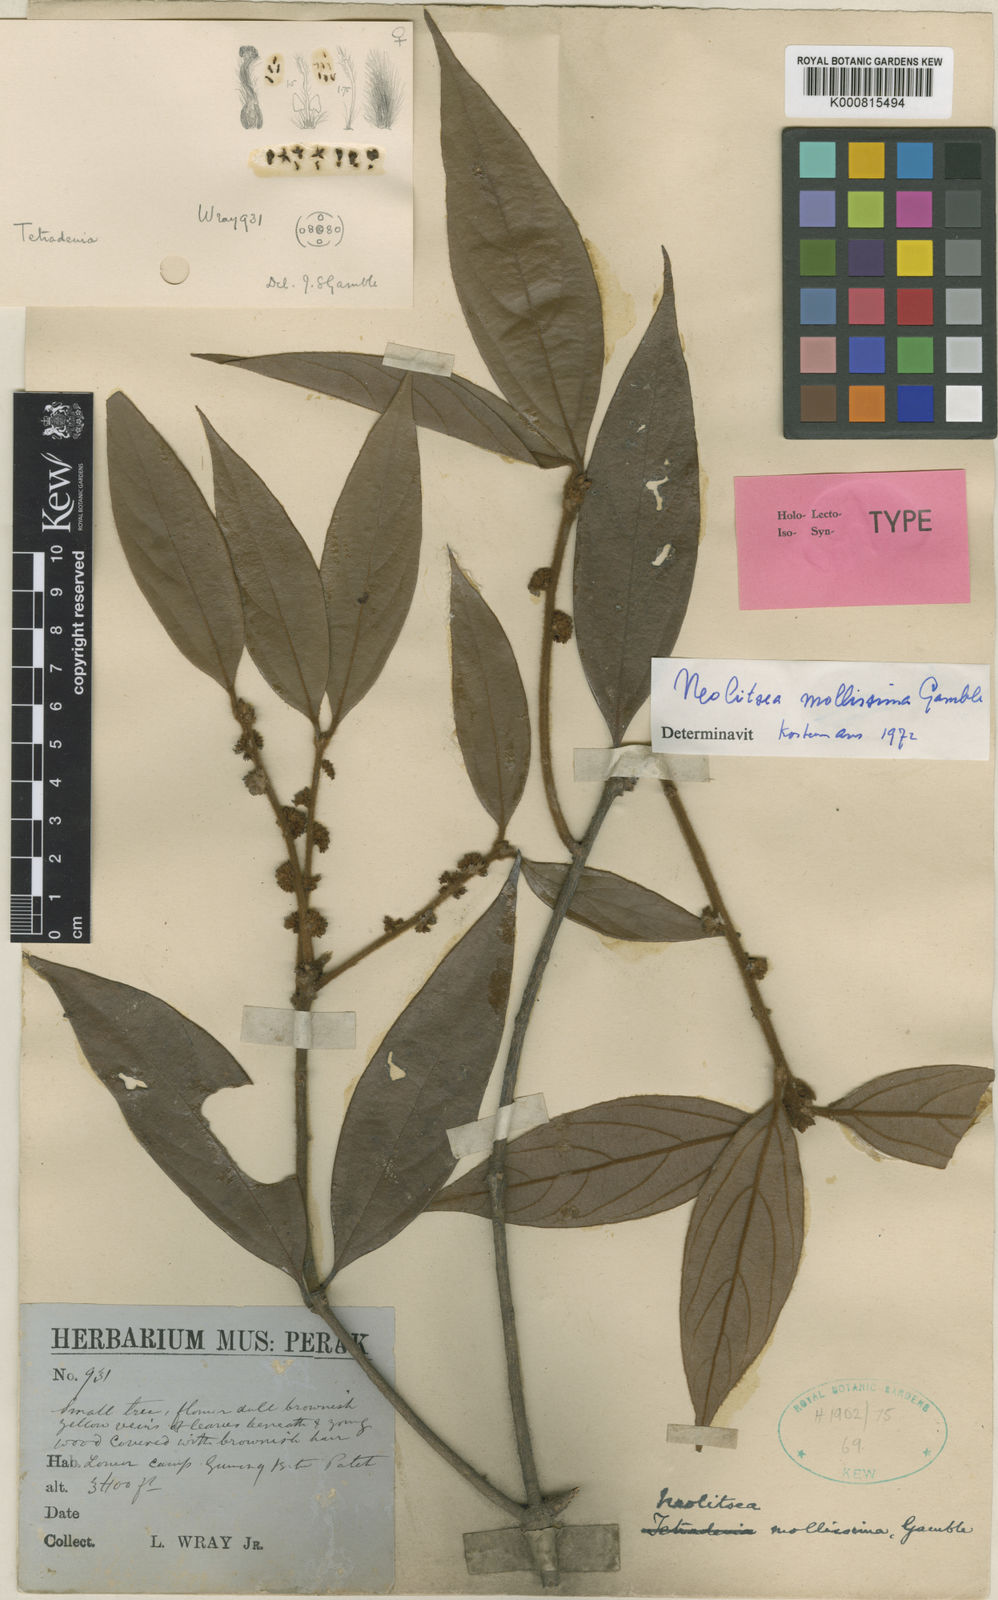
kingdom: Plantae
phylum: Tracheophyta
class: Magnoliopsida
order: Laurales
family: Lauraceae
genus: Neolitsea
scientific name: Neolitsea mollissima
